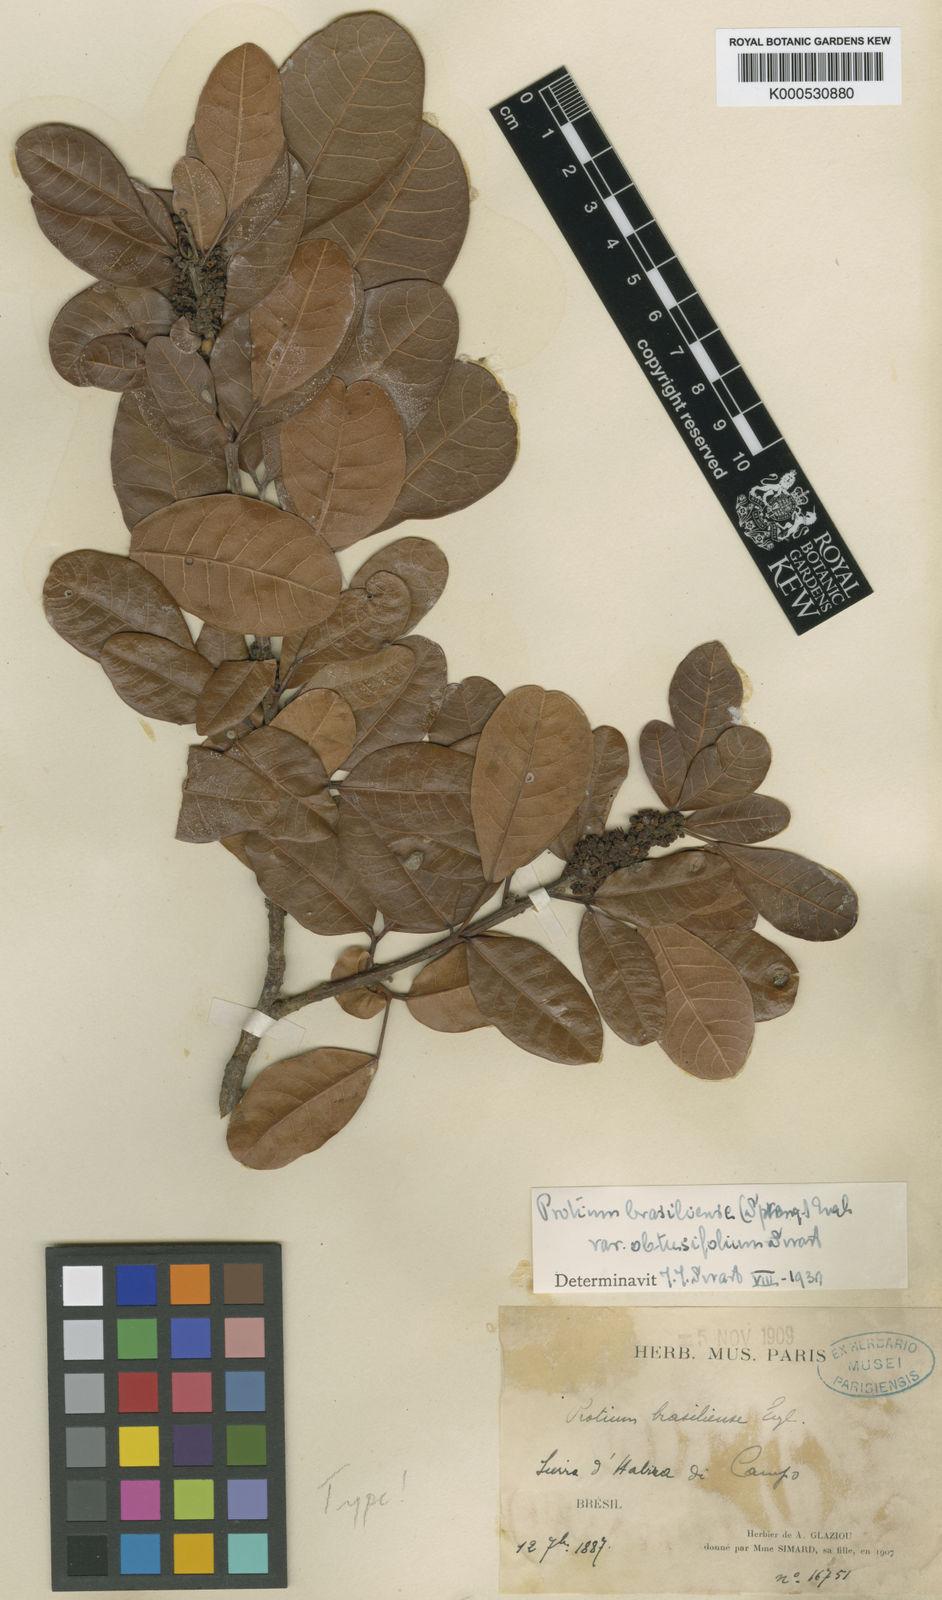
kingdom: Plantae
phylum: Tracheophyta
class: Magnoliopsida
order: Sapindales
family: Burseraceae
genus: Protium
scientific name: Protium brasiliense
